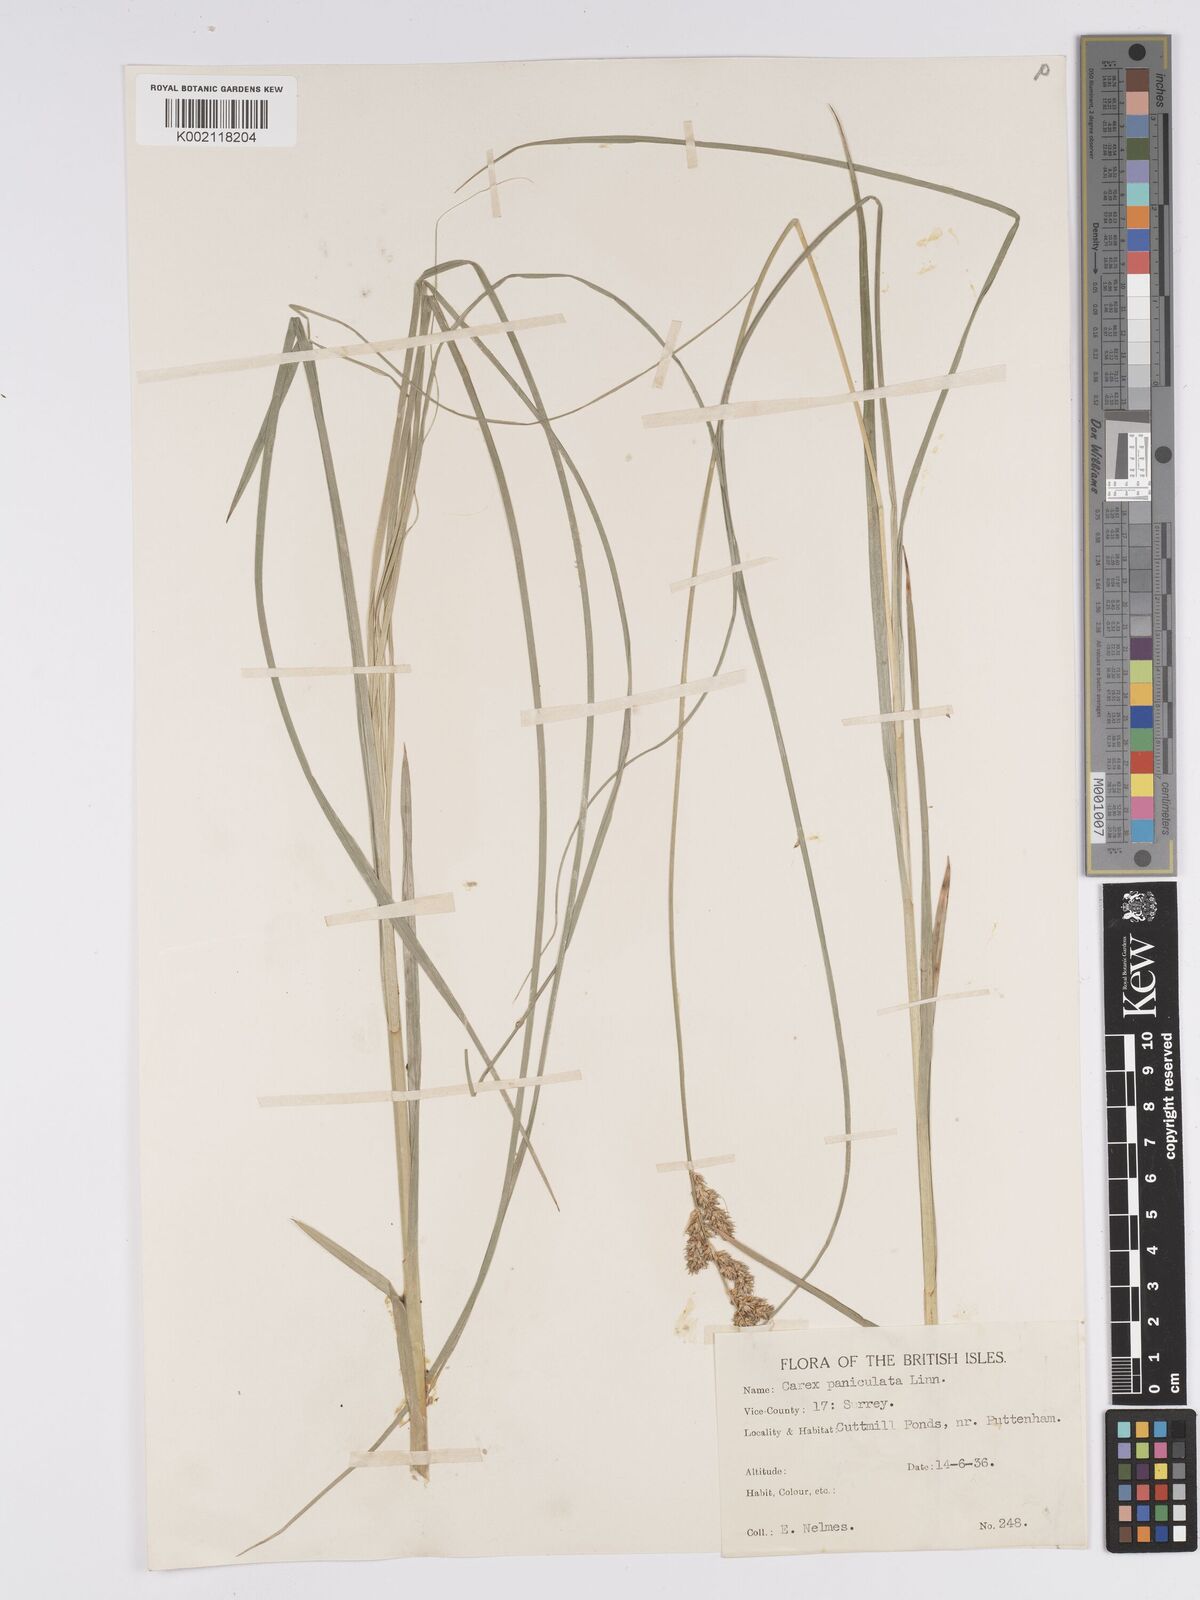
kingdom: Plantae
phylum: Tracheophyta
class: Liliopsida
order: Poales
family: Cyperaceae
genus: Carex
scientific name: Carex paniculata
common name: Greater tussock-sedge
